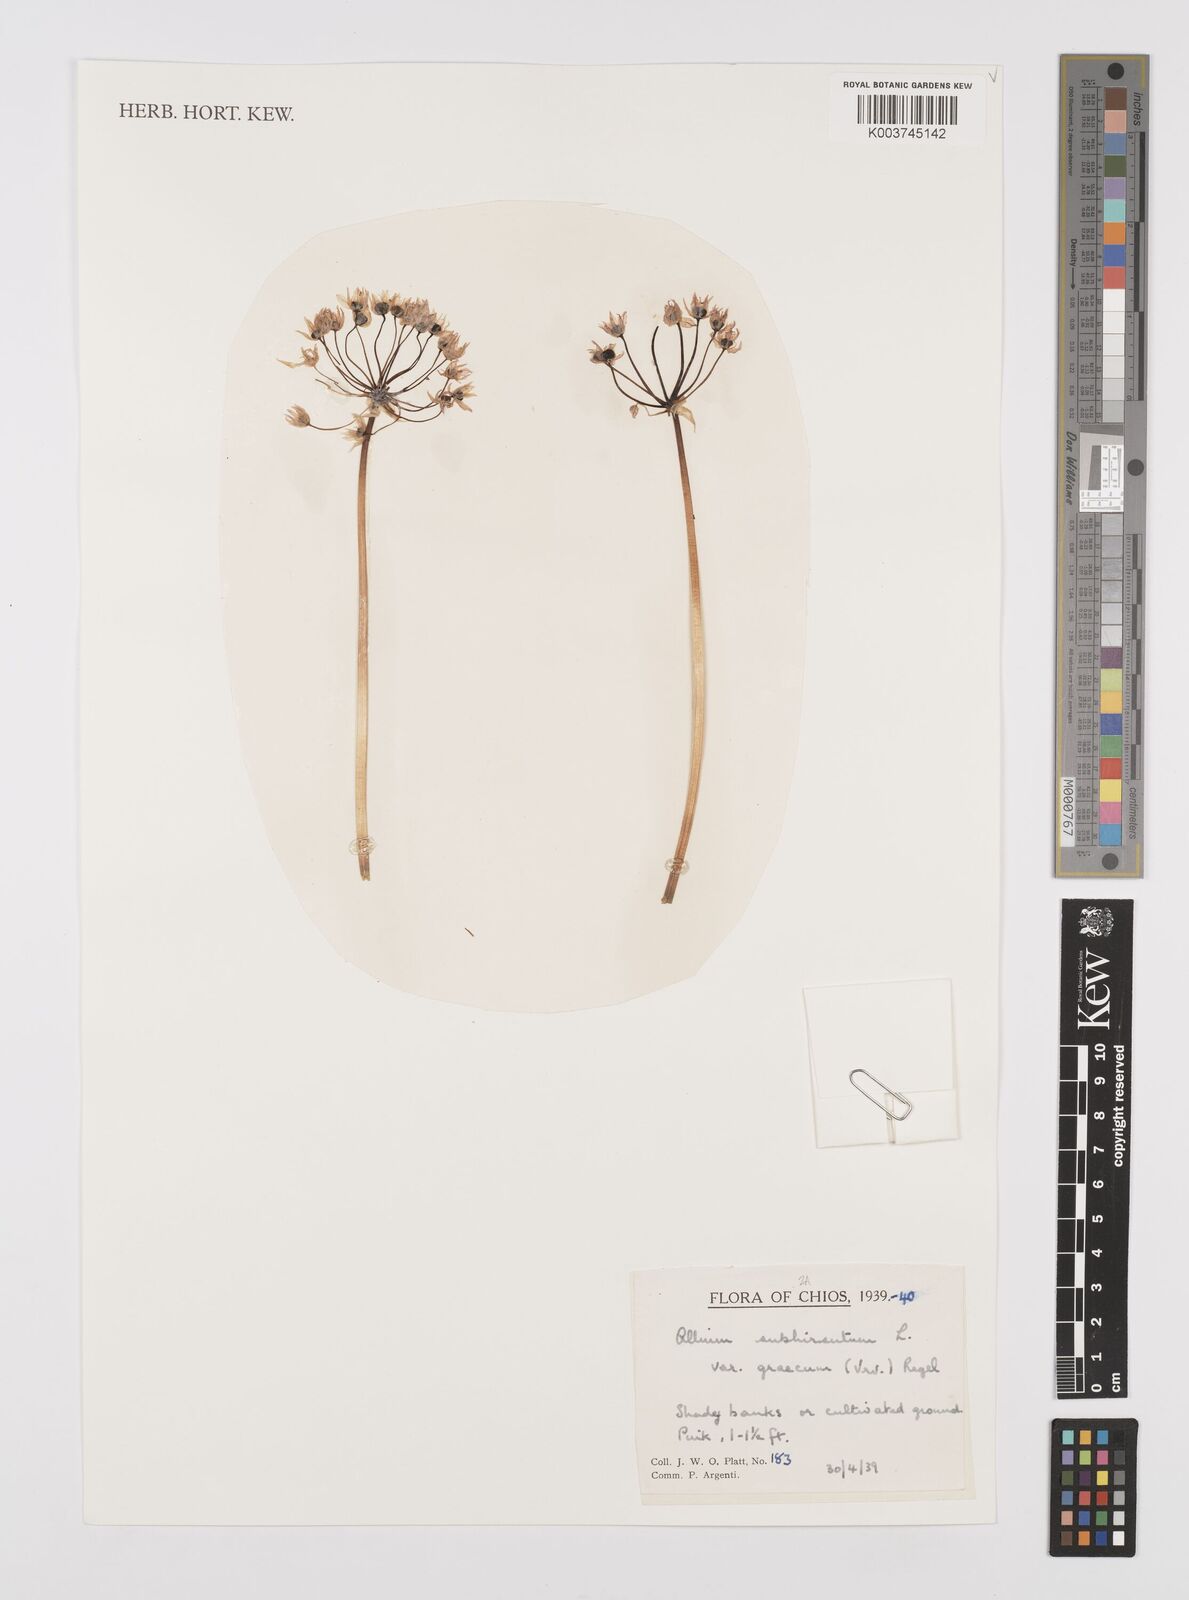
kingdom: Plantae
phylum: Tracheophyta
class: Liliopsida
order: Asparagales
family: Amaryllidaceae
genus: Allium
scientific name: Allium subhirsutum
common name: Hairy garlic
